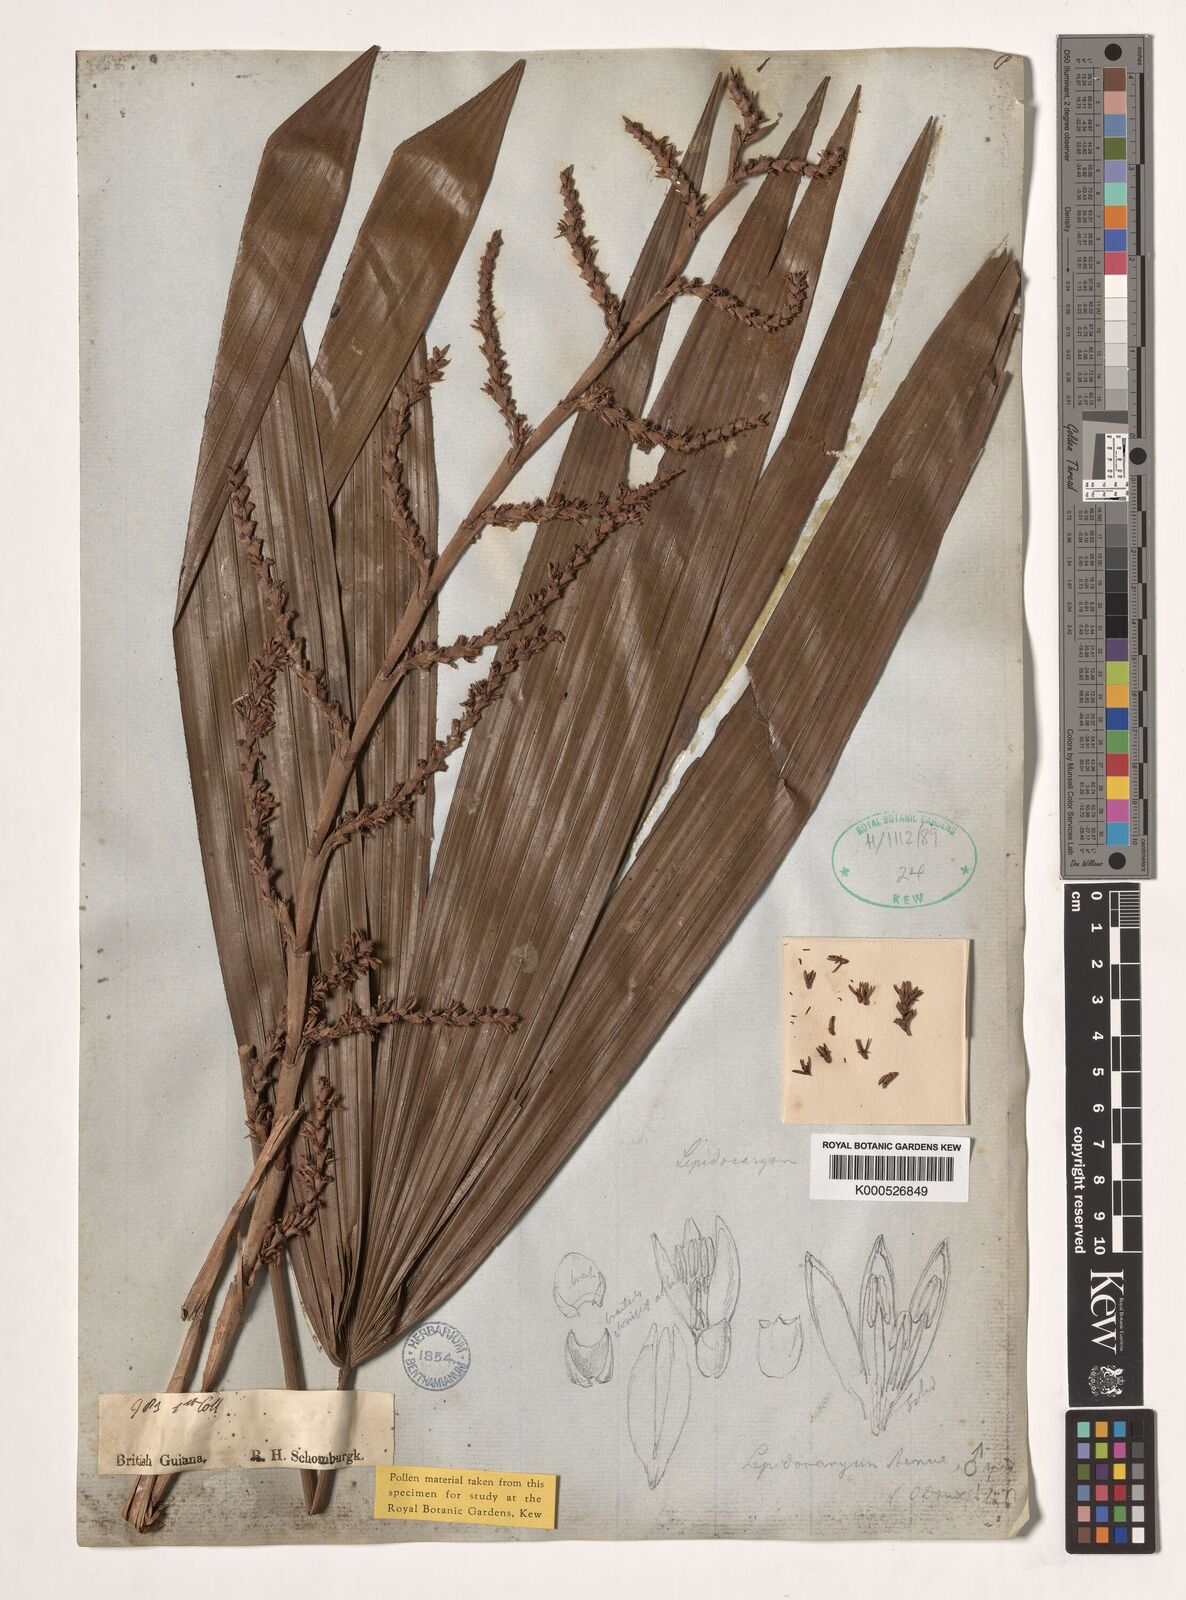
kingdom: Plantae
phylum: Tracheophyta
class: Liliopsida
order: Arecales
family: Arecaceae
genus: Lepidocaryum
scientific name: Lepidocaryum tenue
